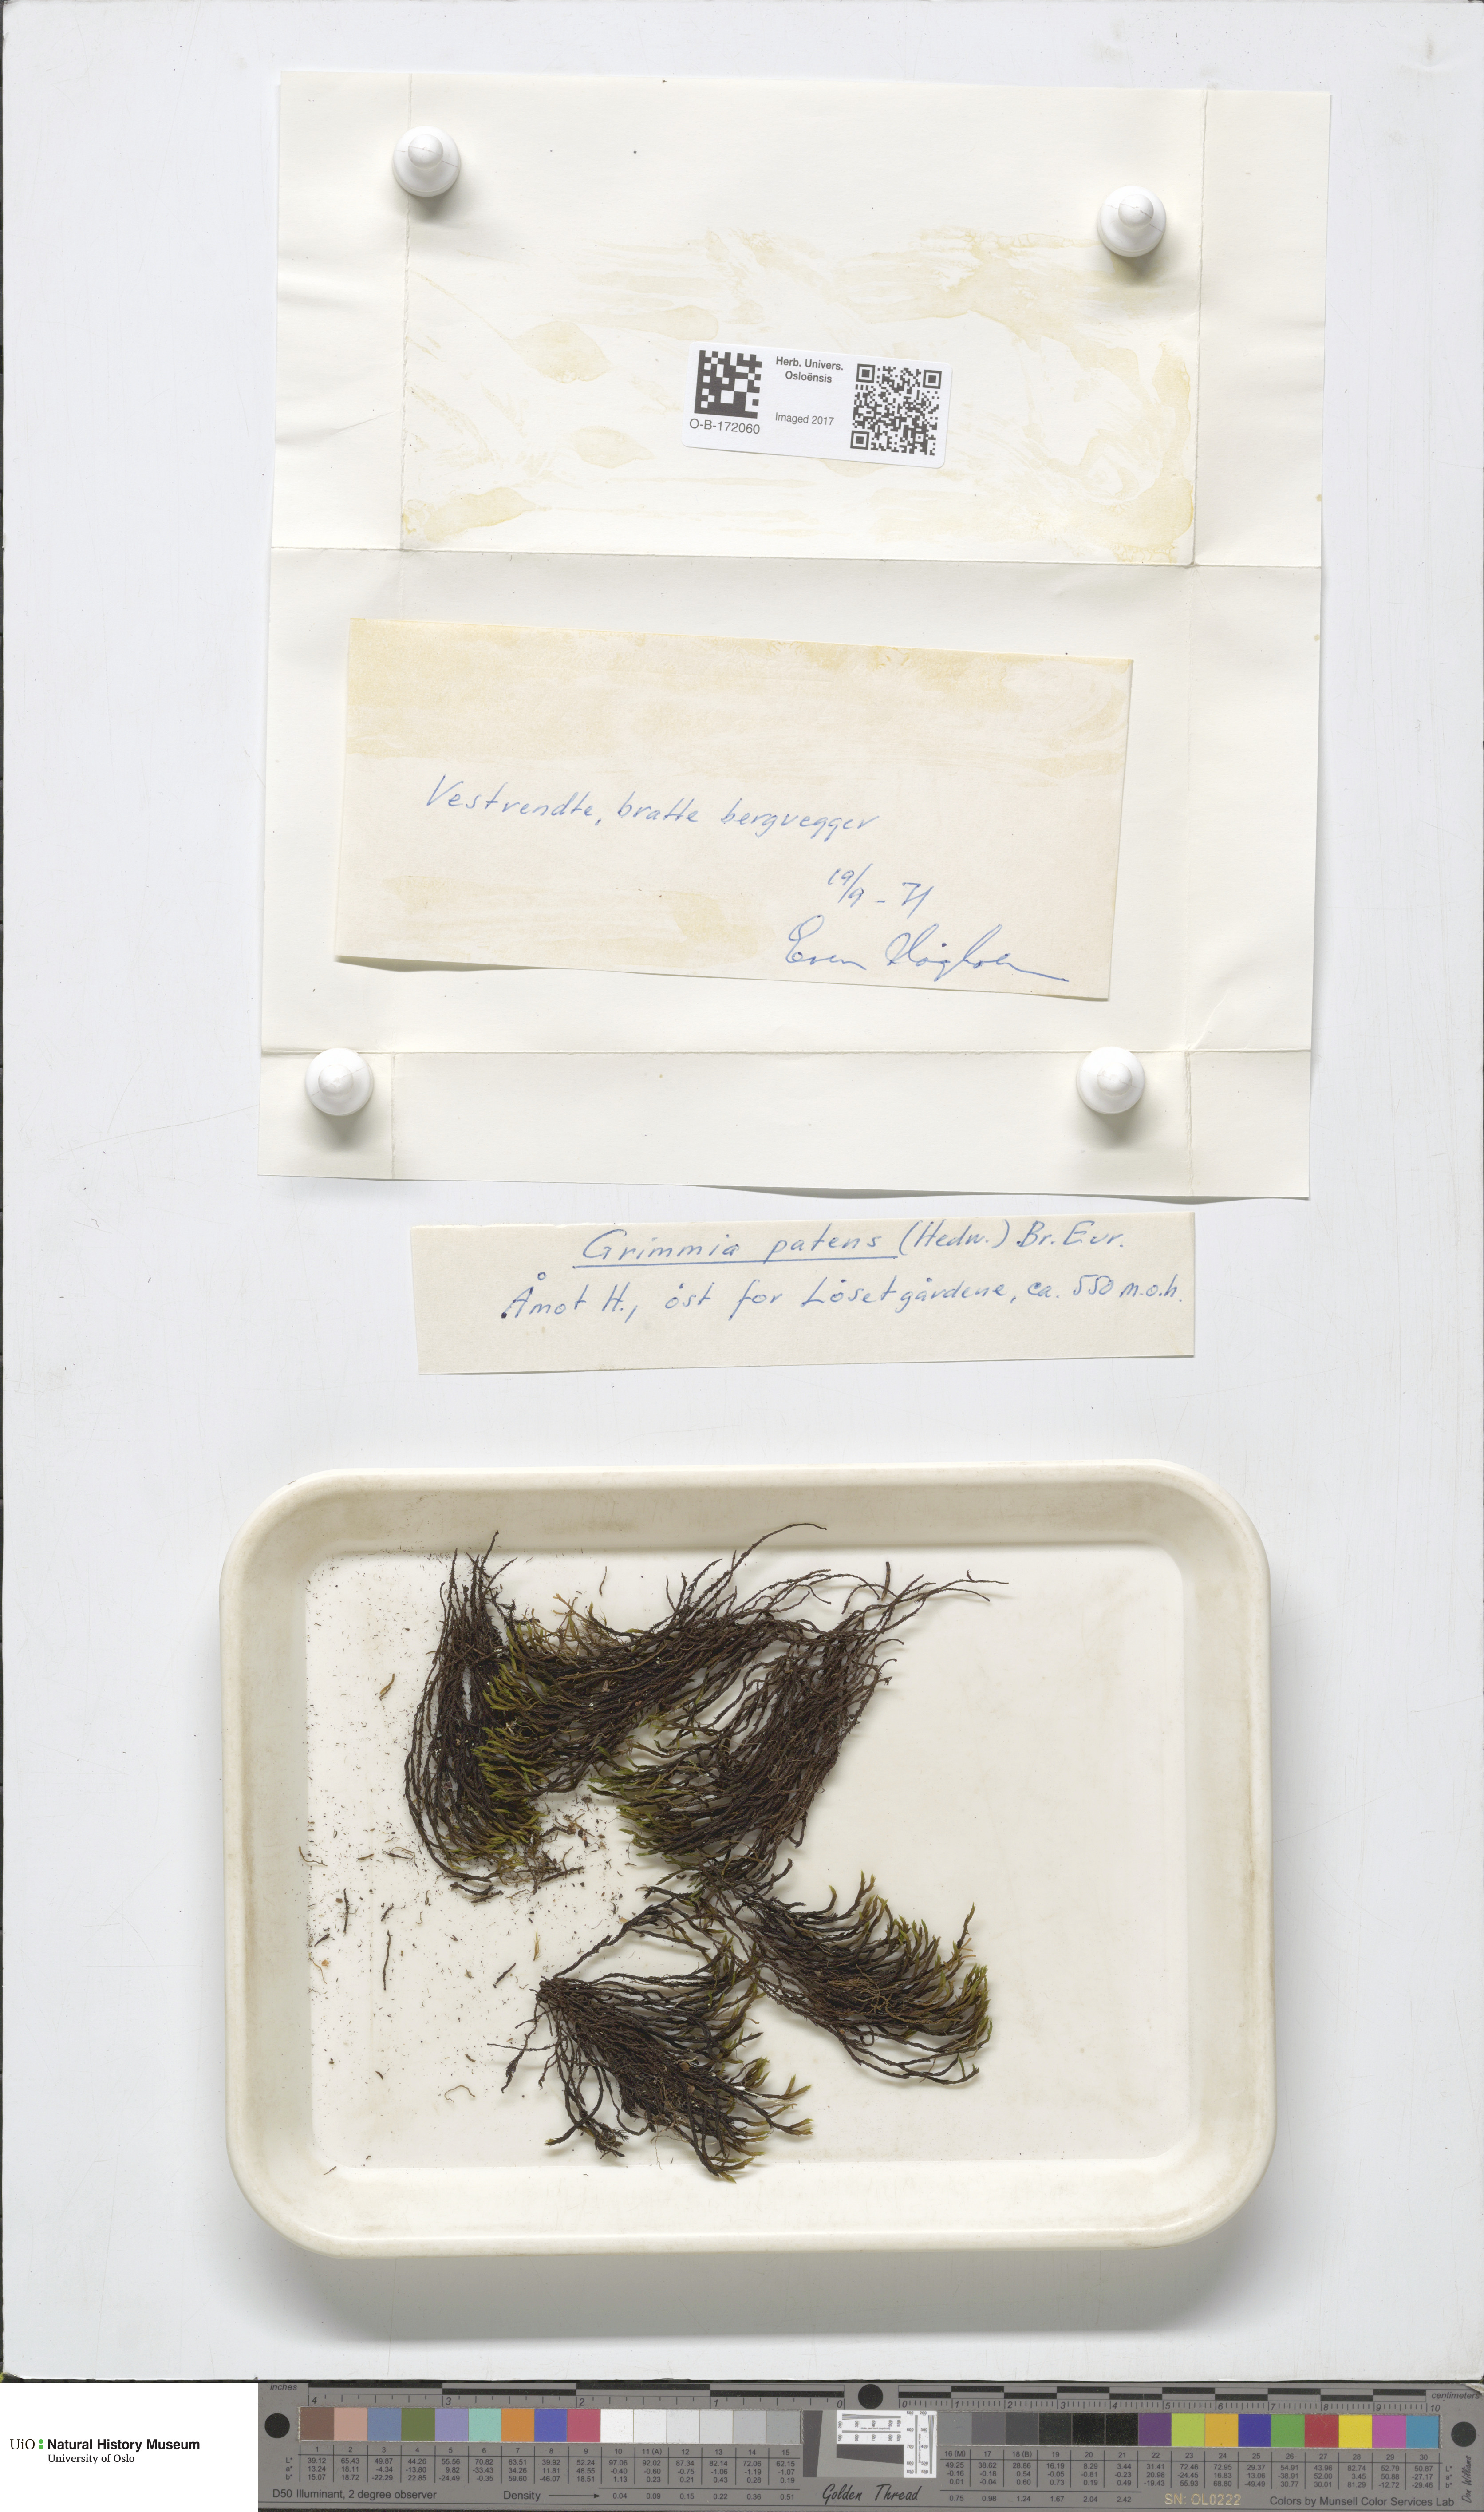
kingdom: Plantae
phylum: Bryophyta
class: Bryopsida
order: Grimmiales
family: Grimmiaceae
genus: Grimmia
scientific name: Grimmia ramondii
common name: Spreading-leaved grimmia
